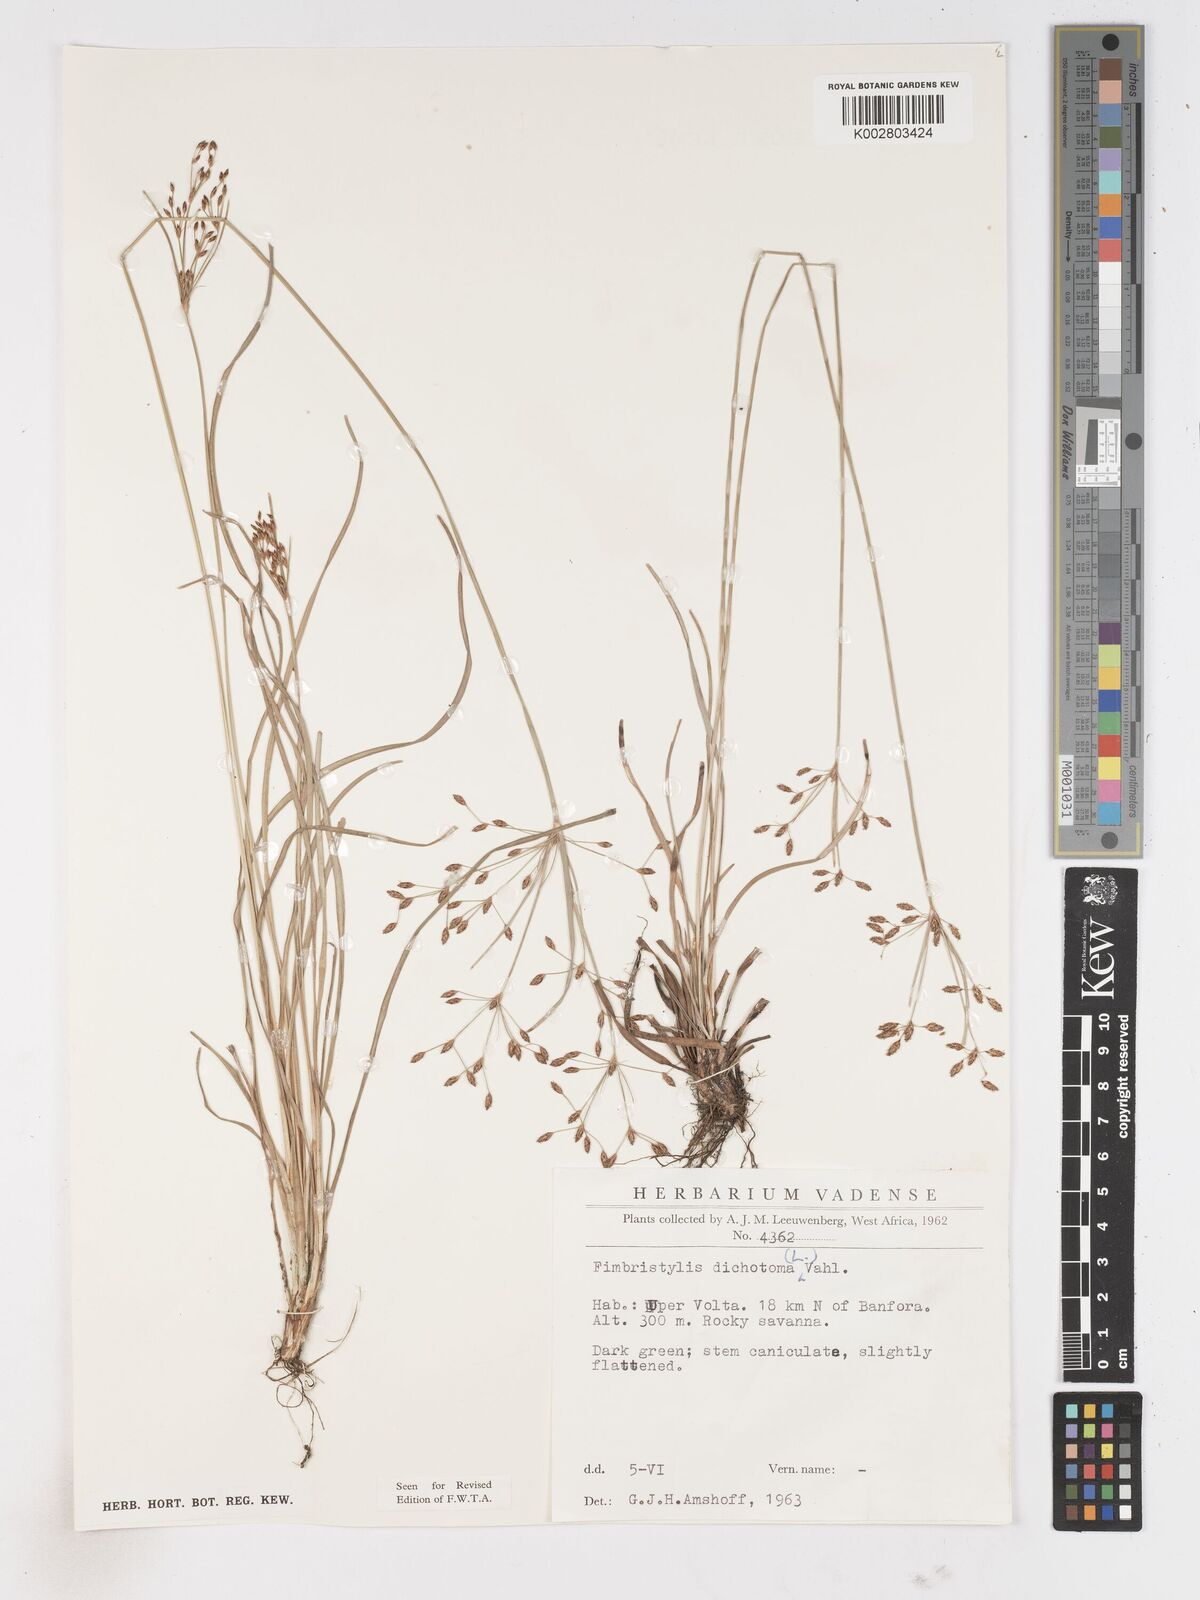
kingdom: Plantae
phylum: Tracheophyta
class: Liliopsida
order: Poales
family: Cyperaceae
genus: Fimbristylis
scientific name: Fimbristylis dichotoma
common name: Forked fimbry
